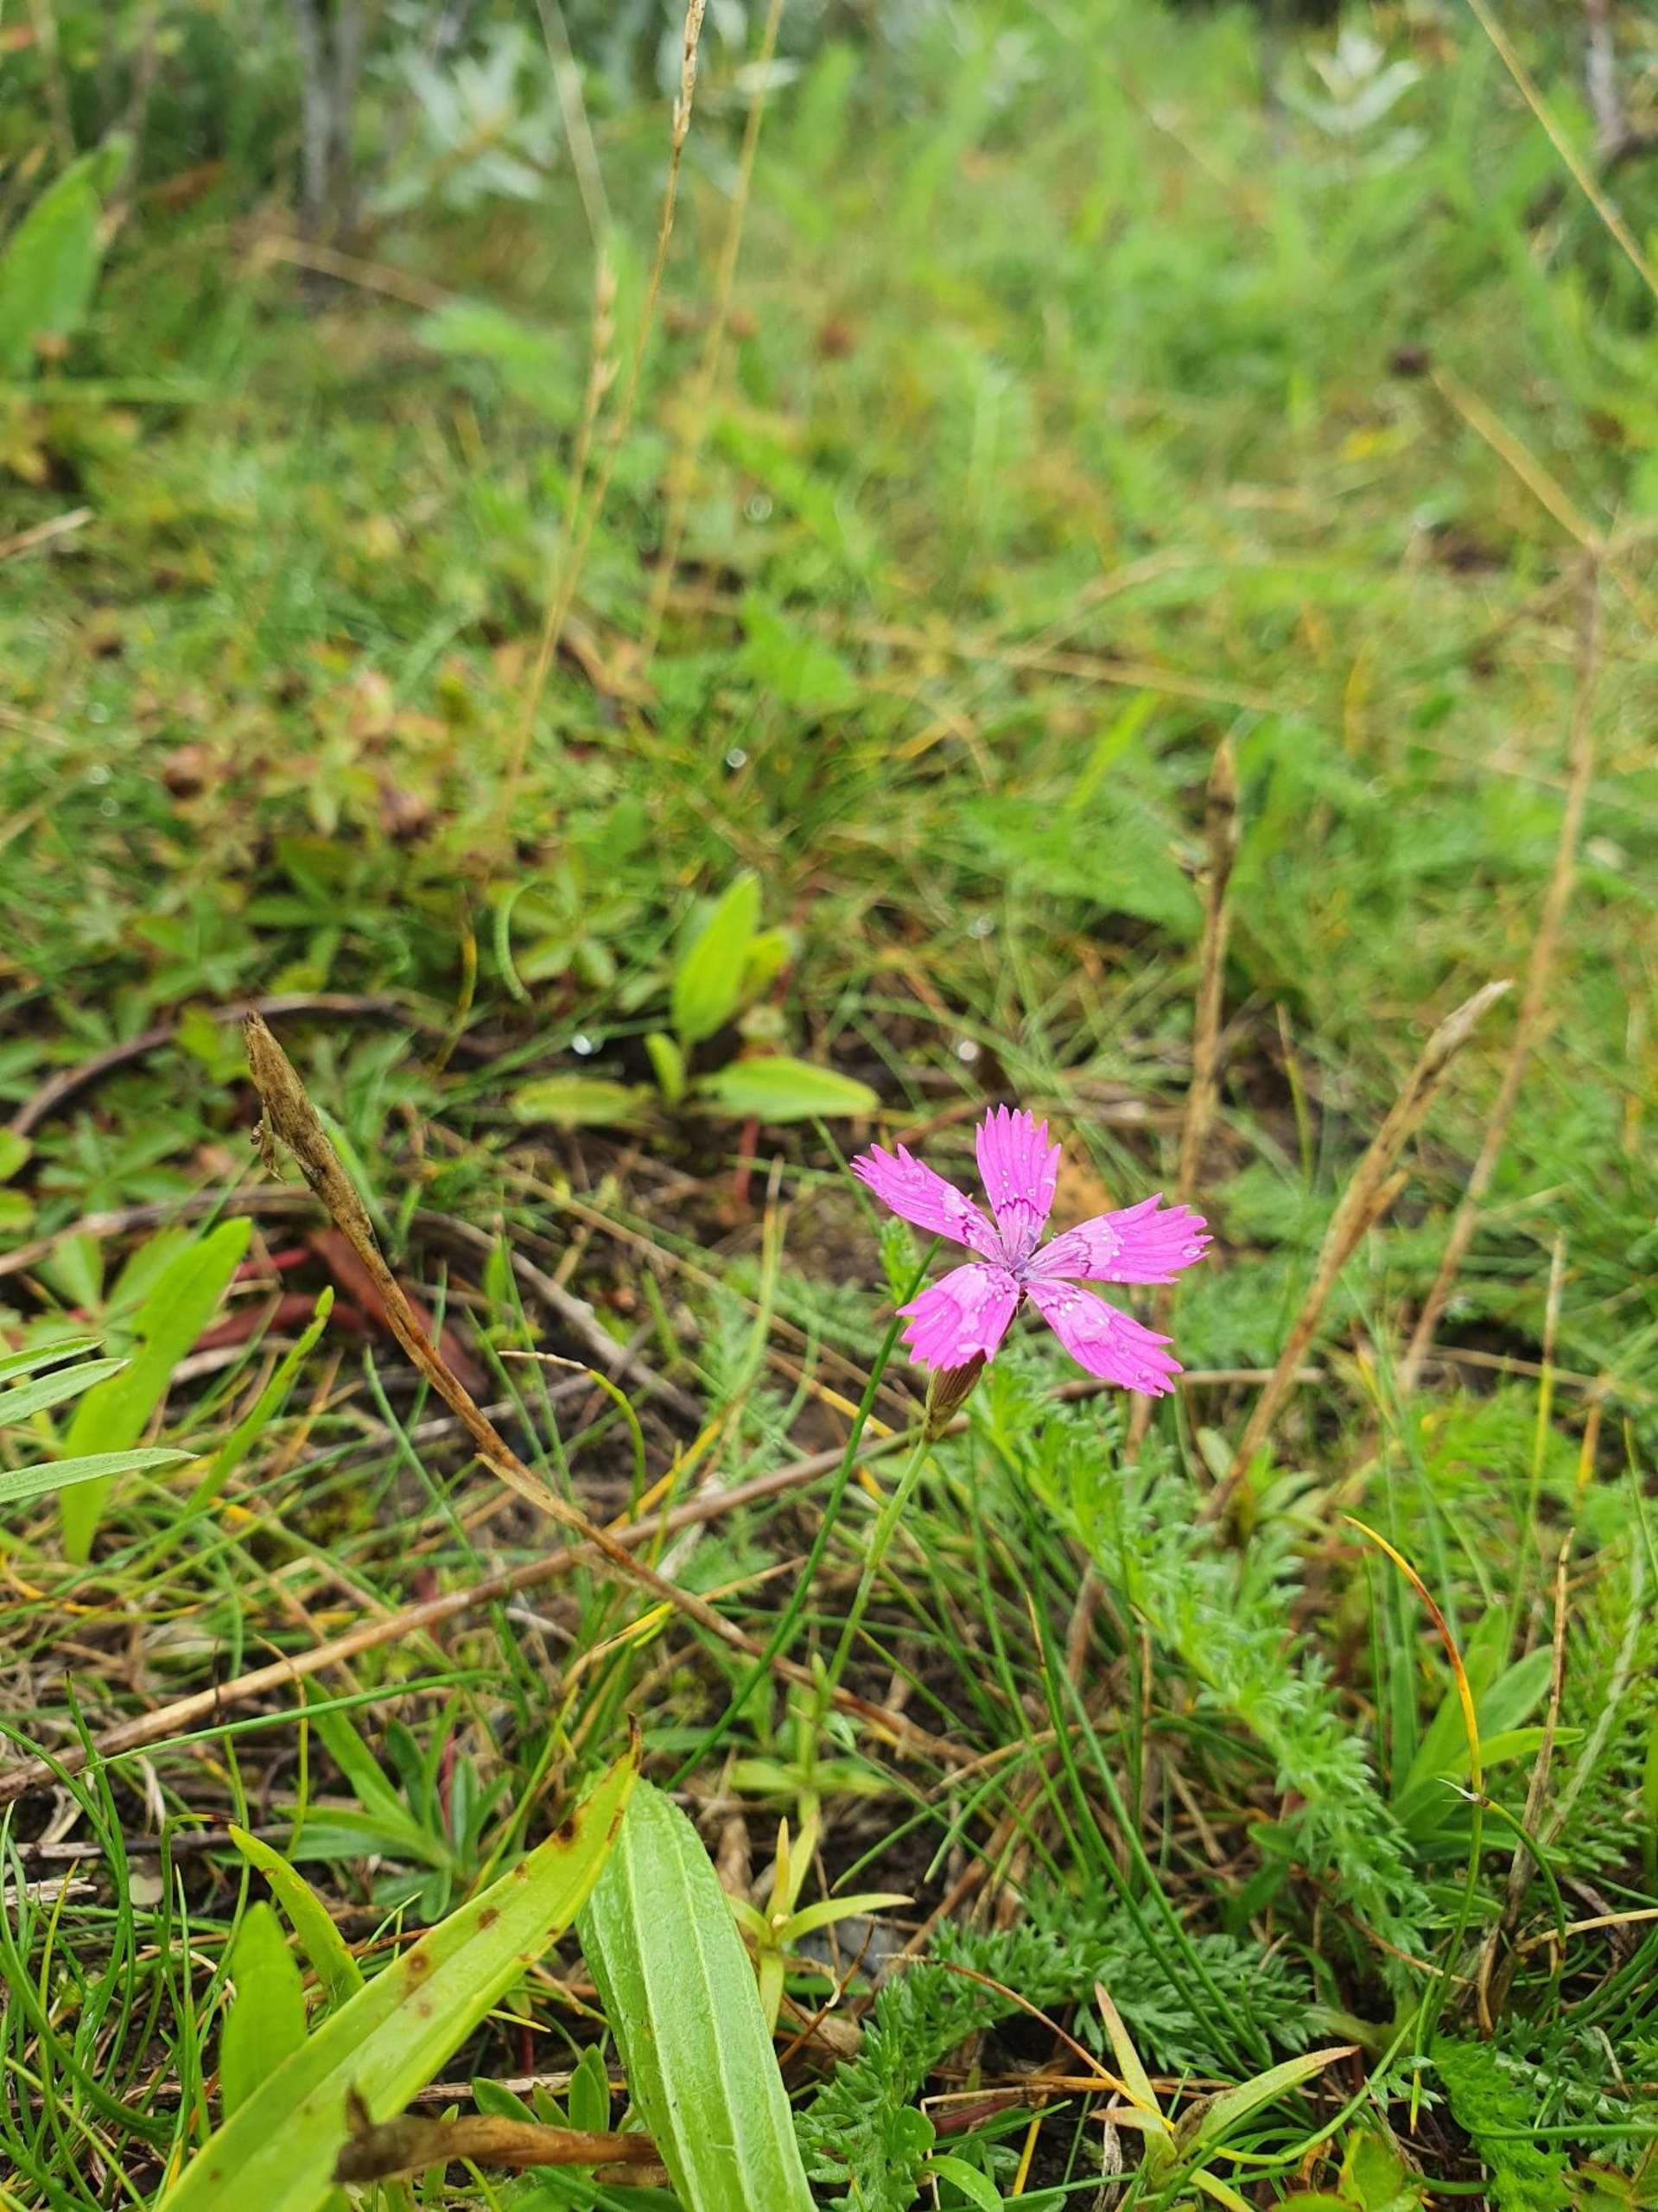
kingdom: Plantae
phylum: Tracheophyta
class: Magnoliopsida
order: Caryophyllales
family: Caryophyllaceae
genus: Dianthus
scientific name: Dianthus deltoides
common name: Bakke-nellike
